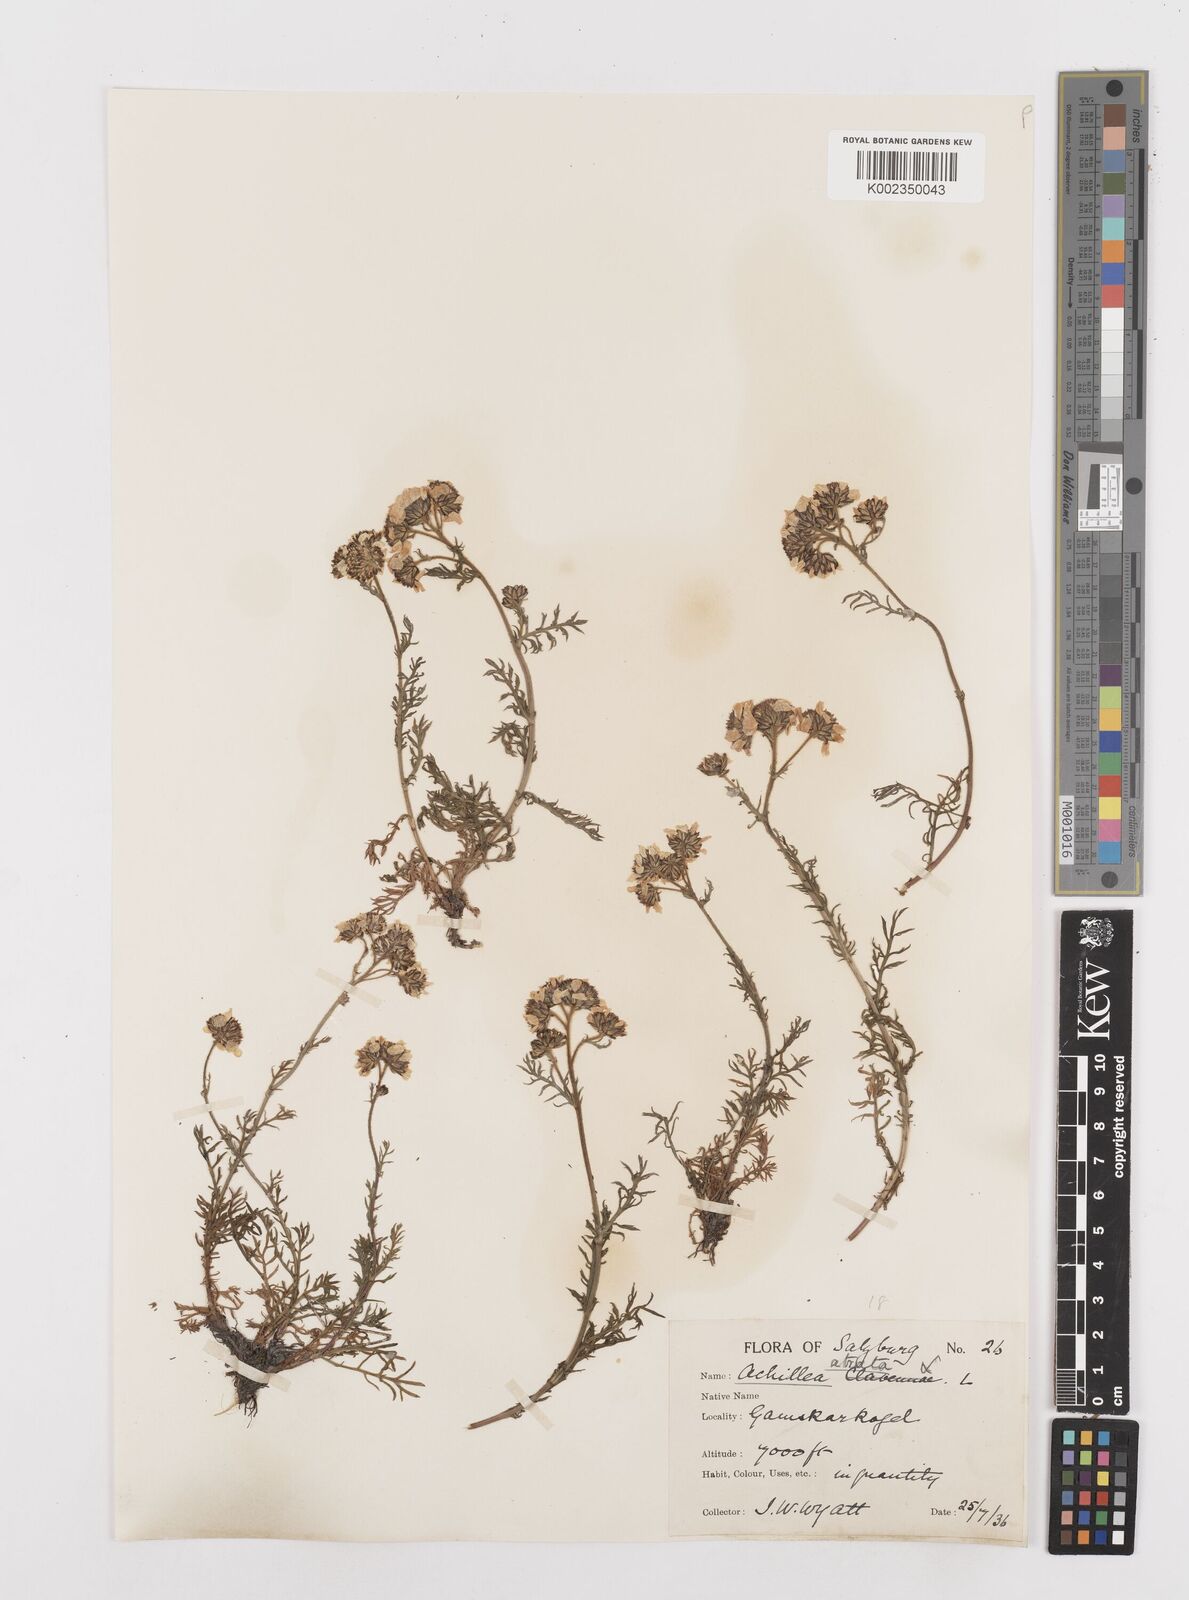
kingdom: Plantae
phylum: Tracheophyta
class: Magnoliopsida
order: Asterales
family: Asteraceae
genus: Achillea
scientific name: Achillea atrata
